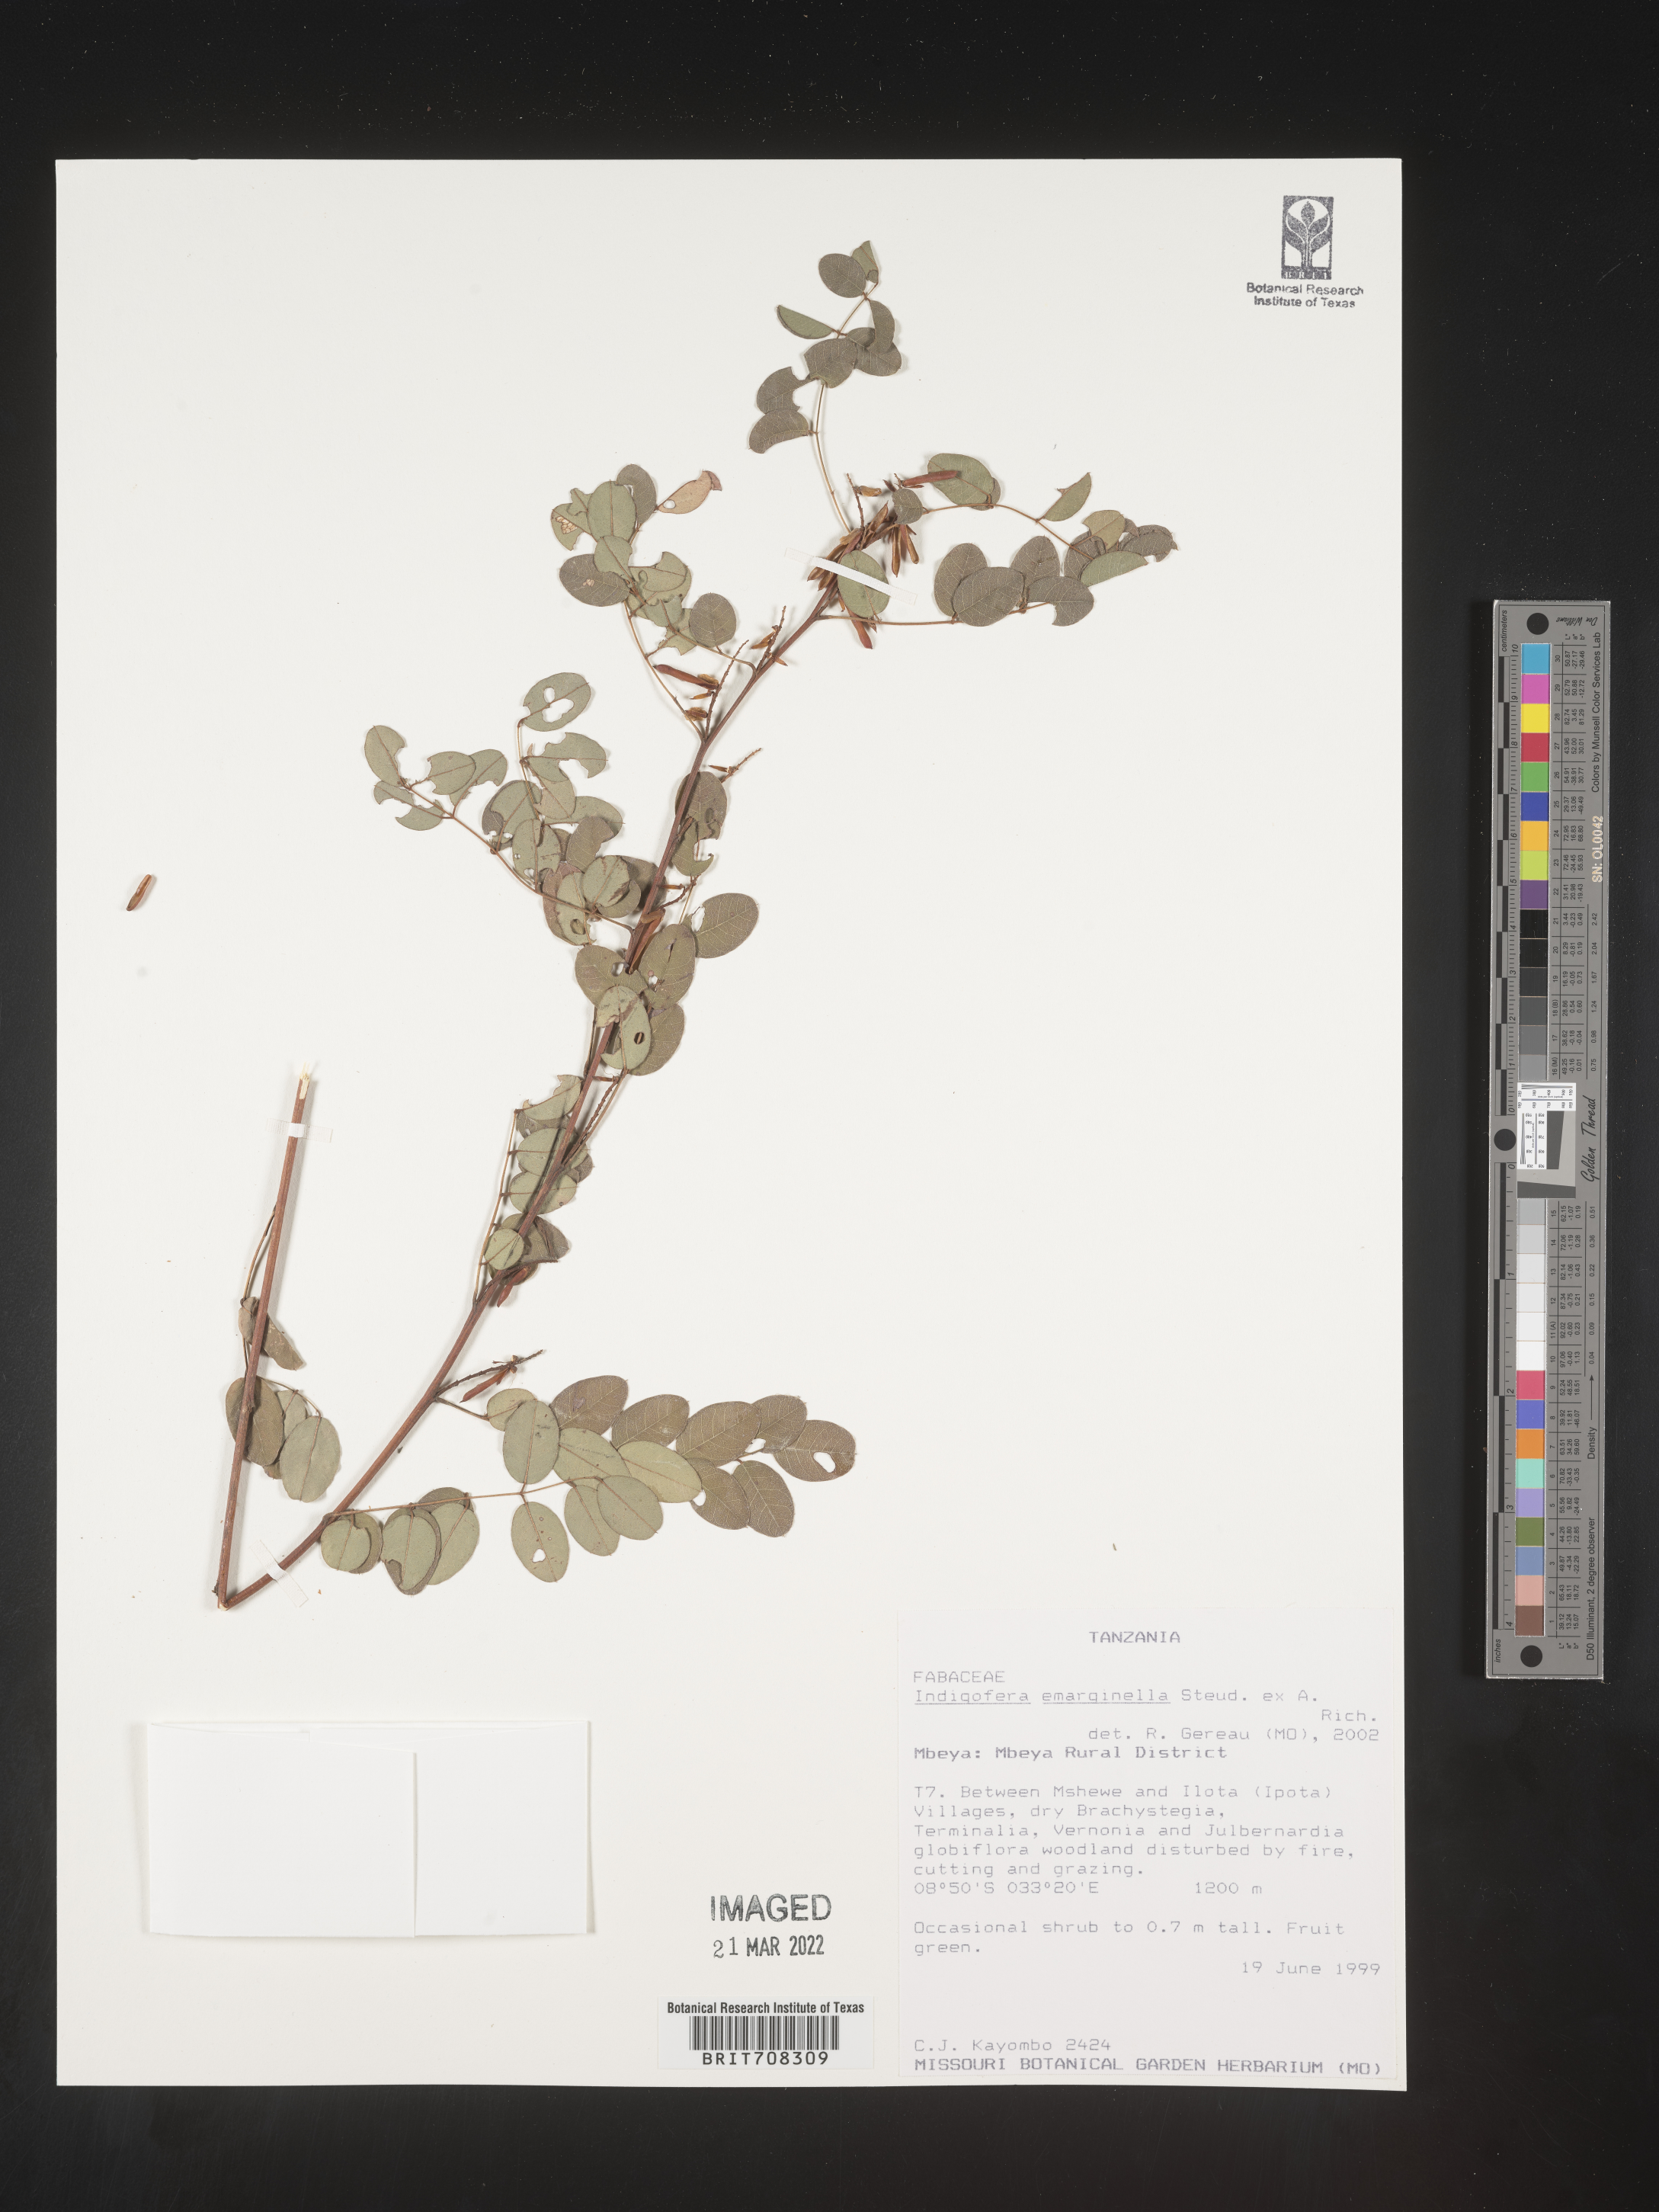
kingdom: Plantae
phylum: Tracheophyta
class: Magnoliopsida
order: Fabales
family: Fabaceae
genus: Indigofera
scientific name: Indigofera
